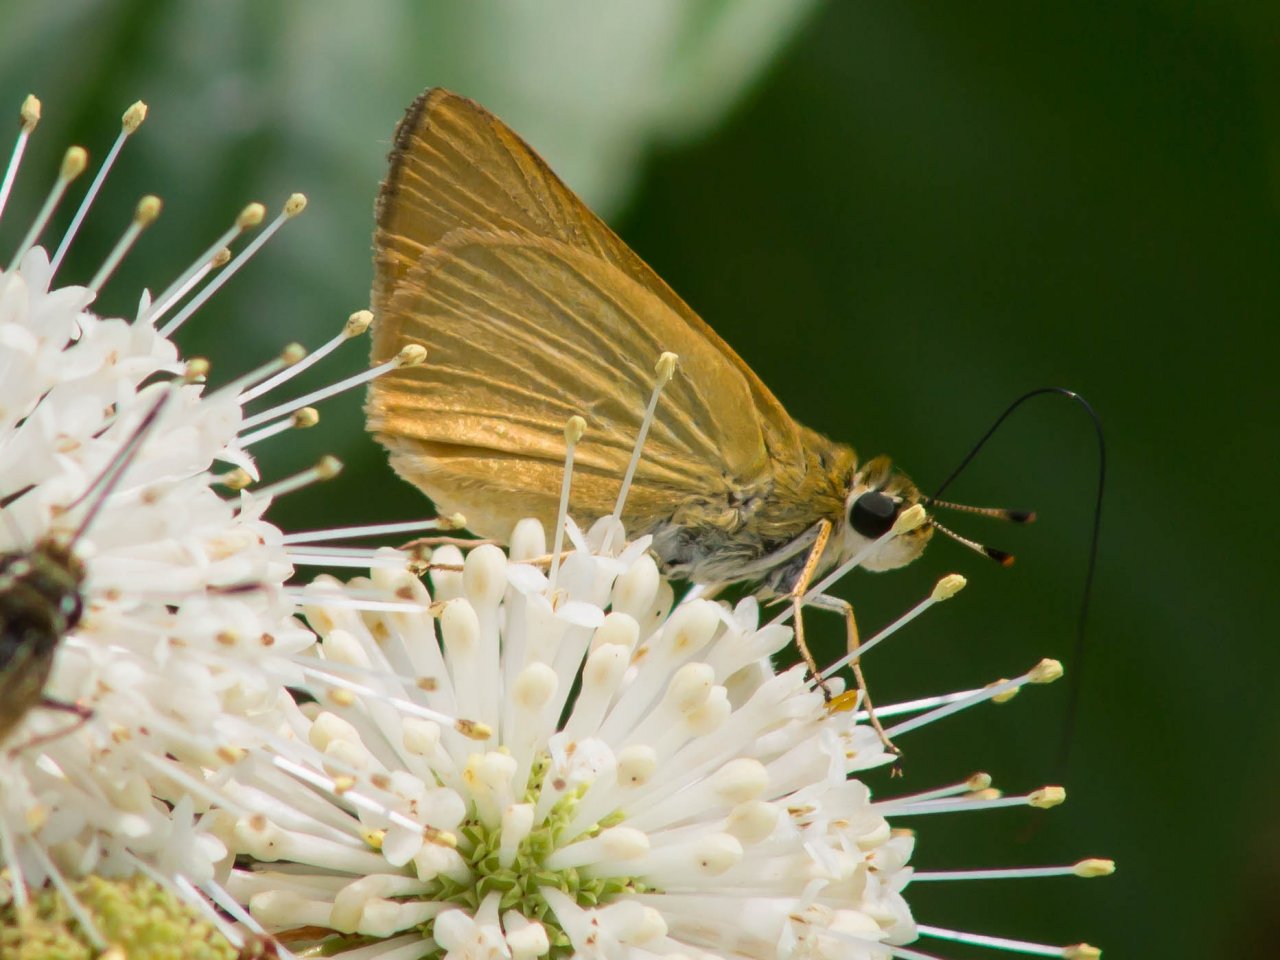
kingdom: Animalia
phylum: Arthropoda
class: Insecta
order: Lepidoptera
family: Hesperiidae
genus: Atrytone
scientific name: Atrytone delaware
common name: Delaware Skipper
